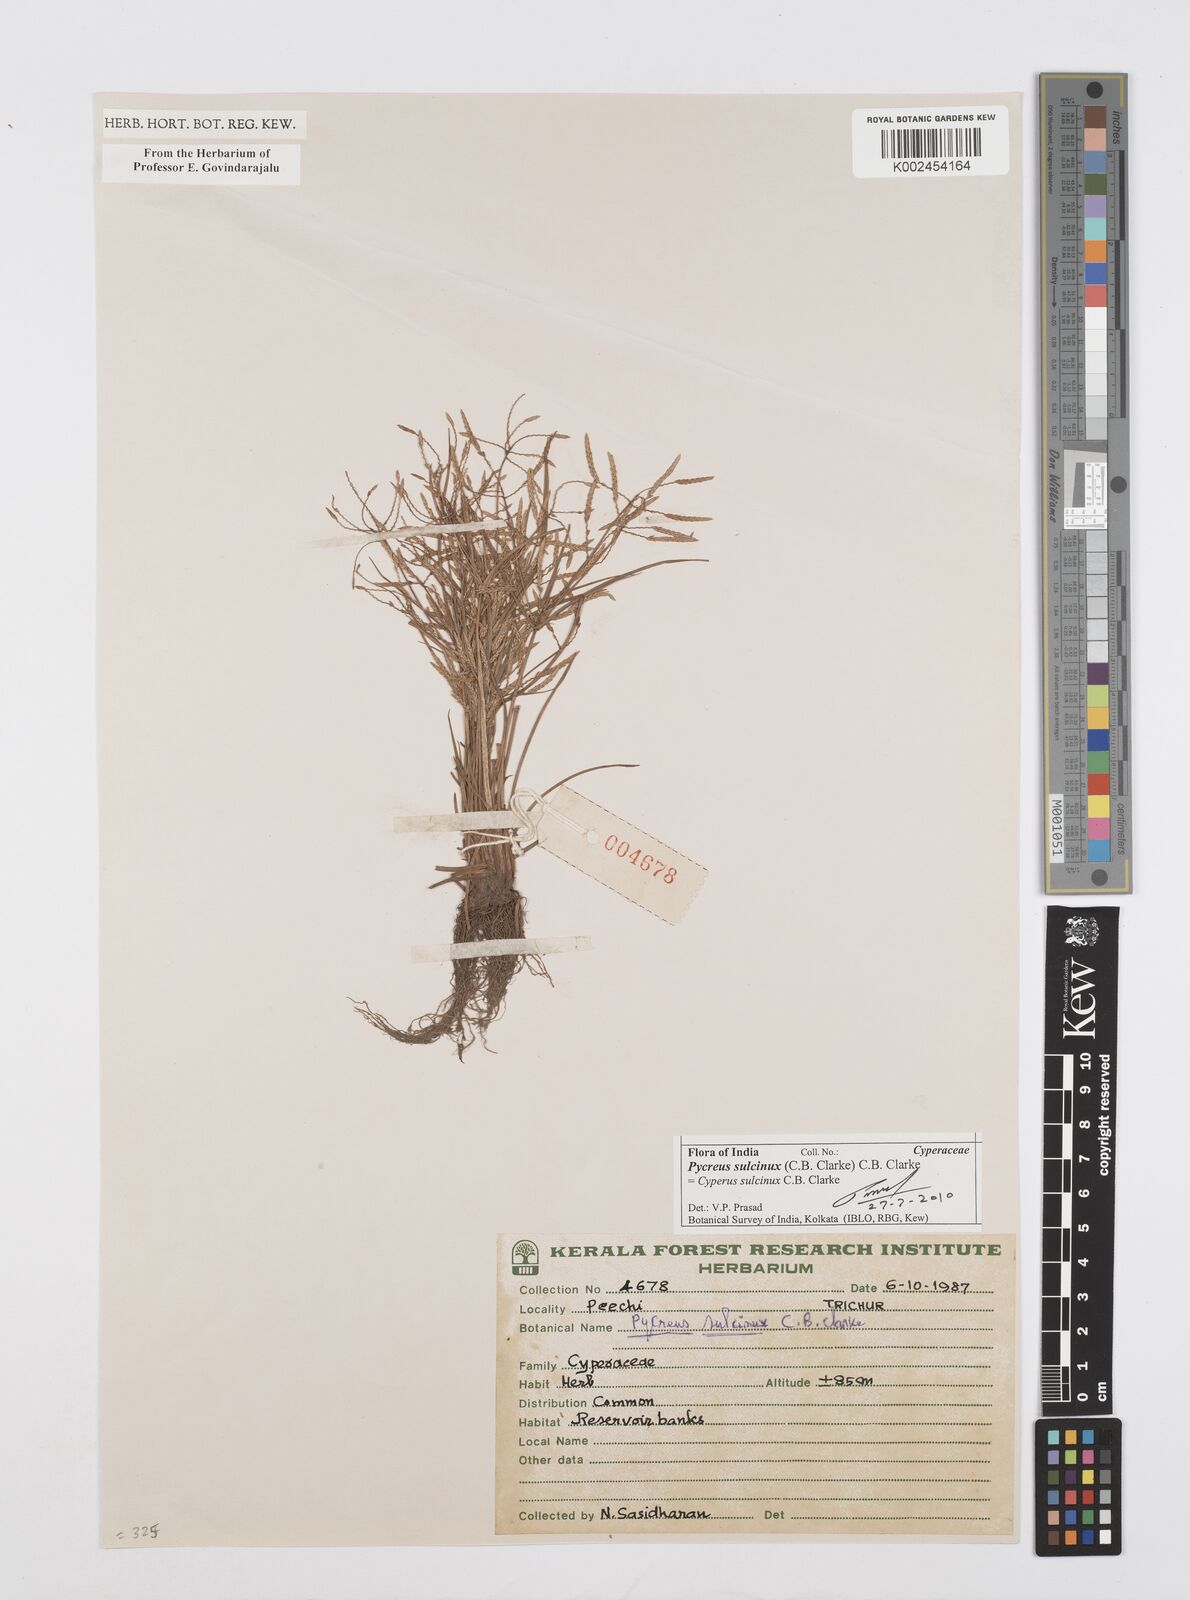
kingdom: Plantae
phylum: Tracheophyta
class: Liliopsida
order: Poales
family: Cyperaceae
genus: Cyperus
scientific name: Cyperus sulcinux
